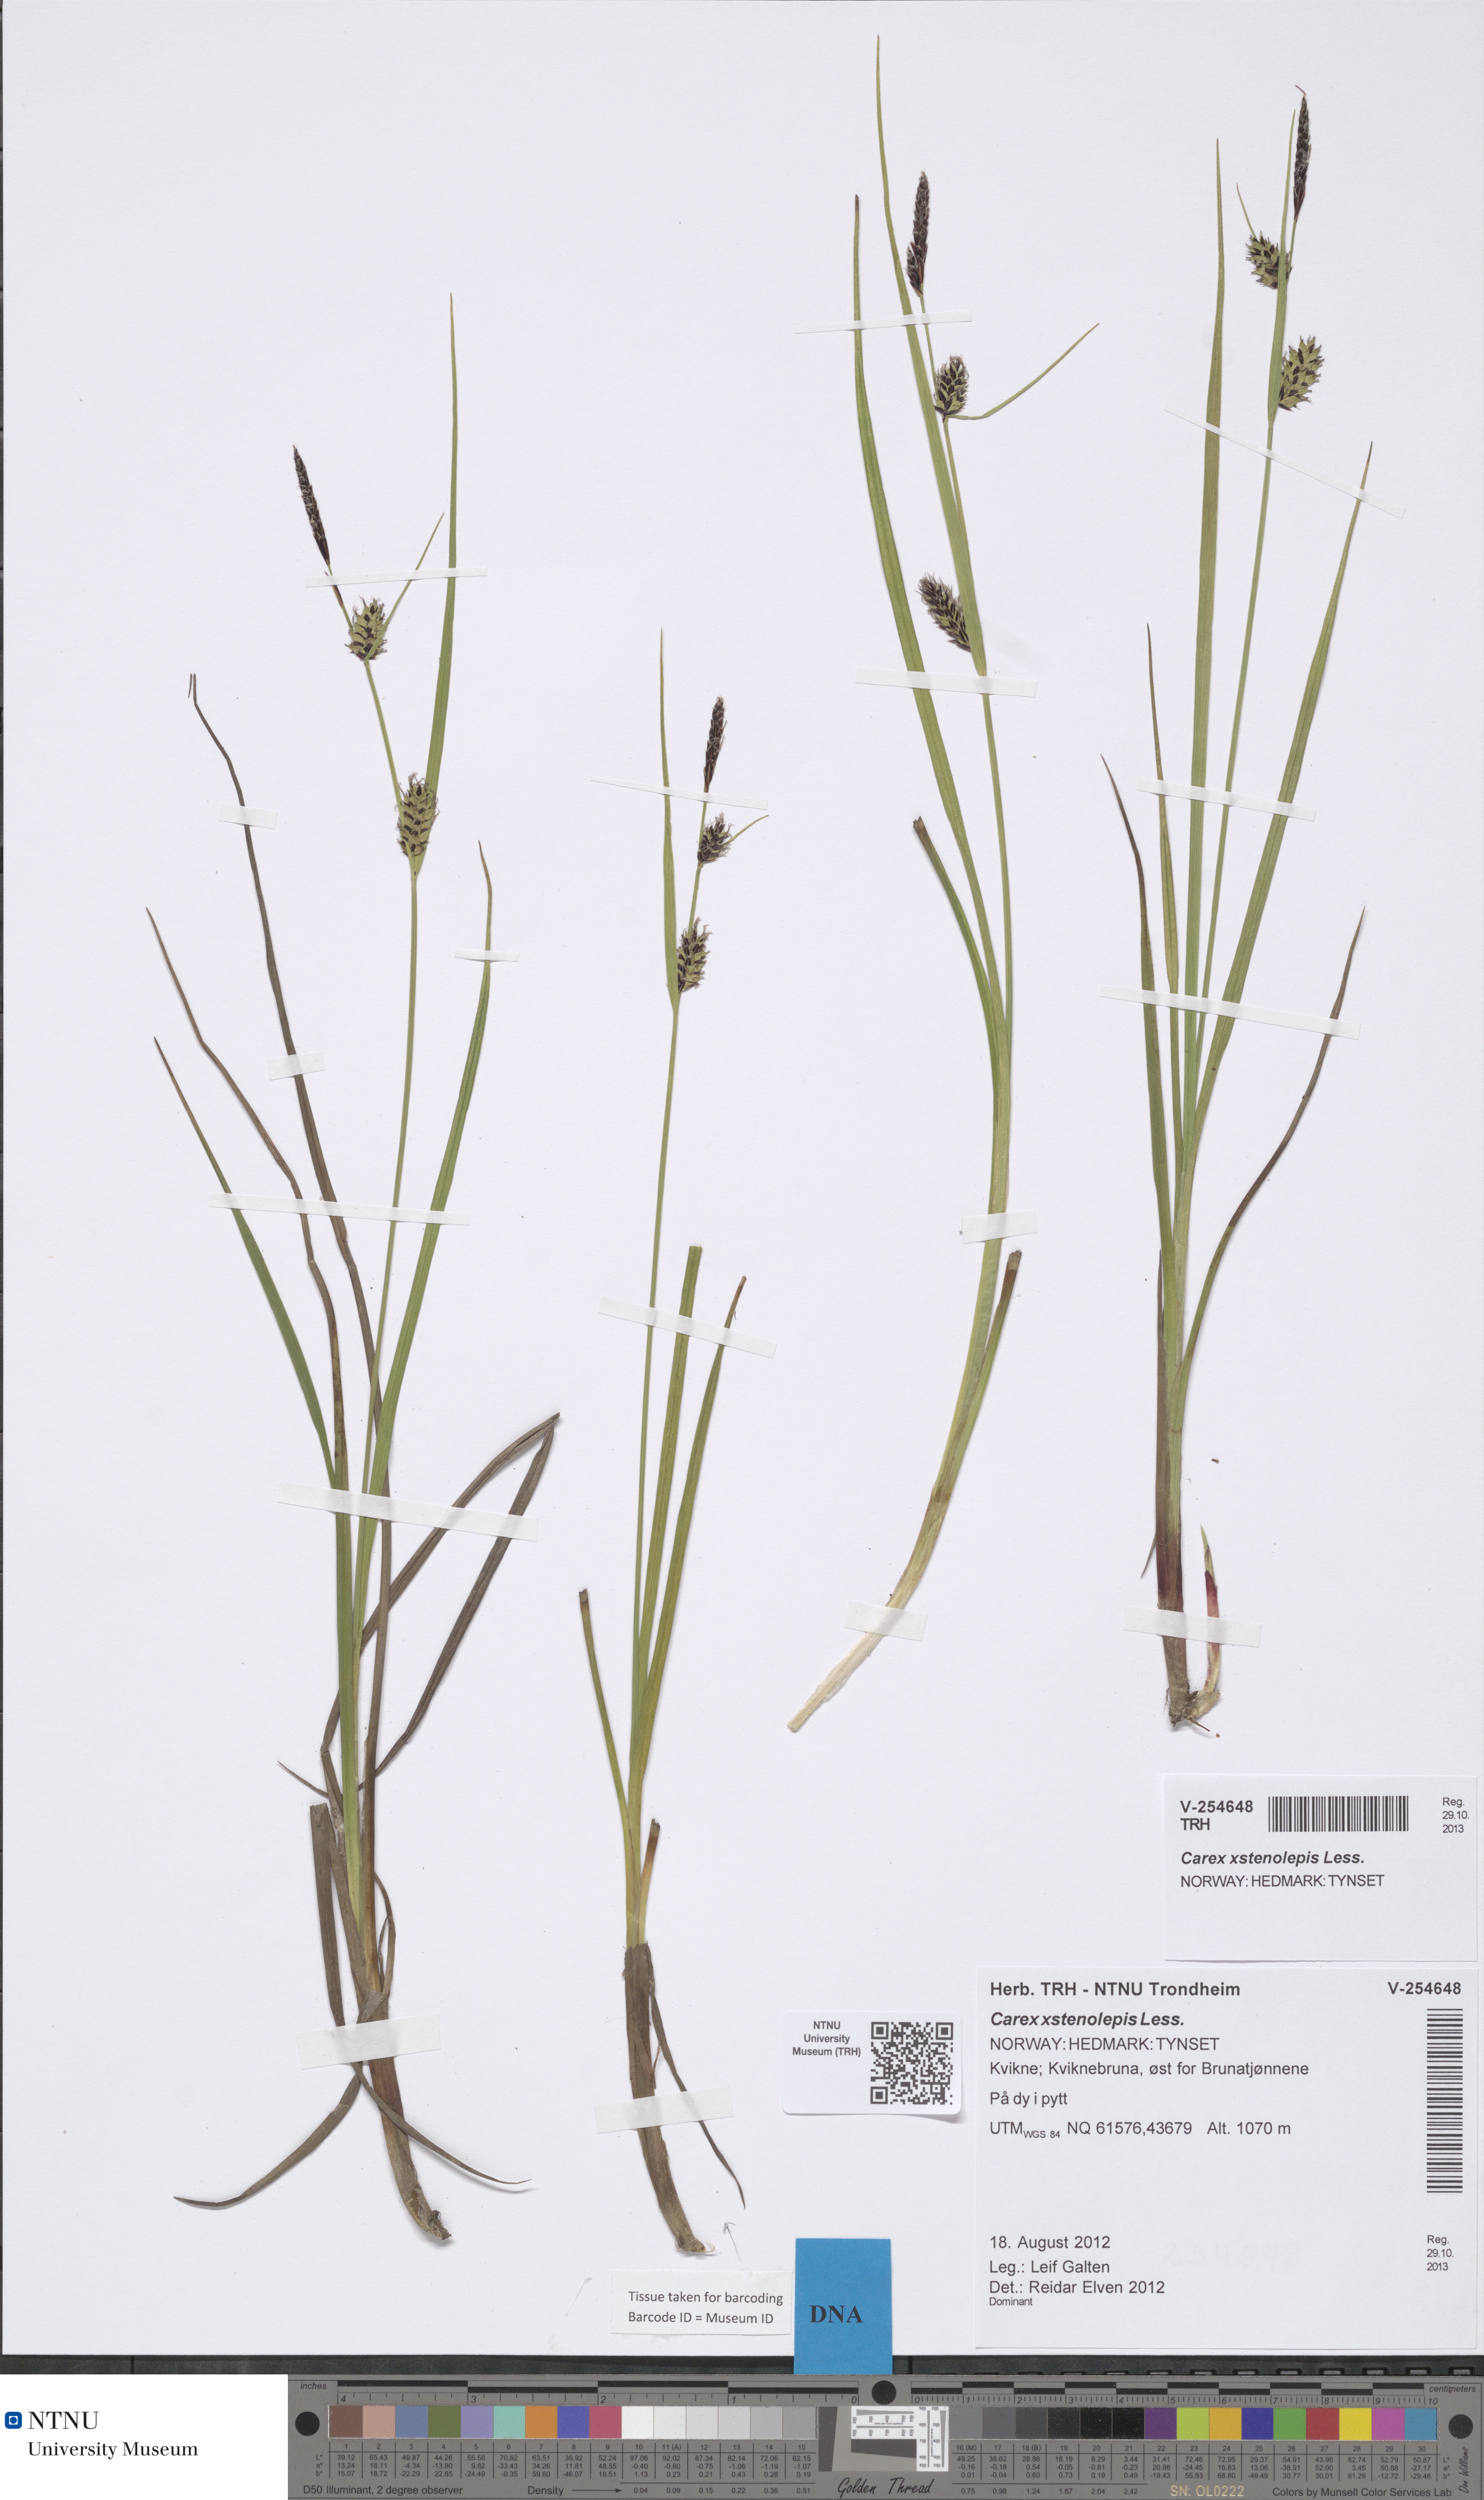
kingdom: Plantae
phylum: Tracheophyta
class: Liliopsida
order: Poales
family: Cyperaceae
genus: Carex
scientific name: Carex grahamii
